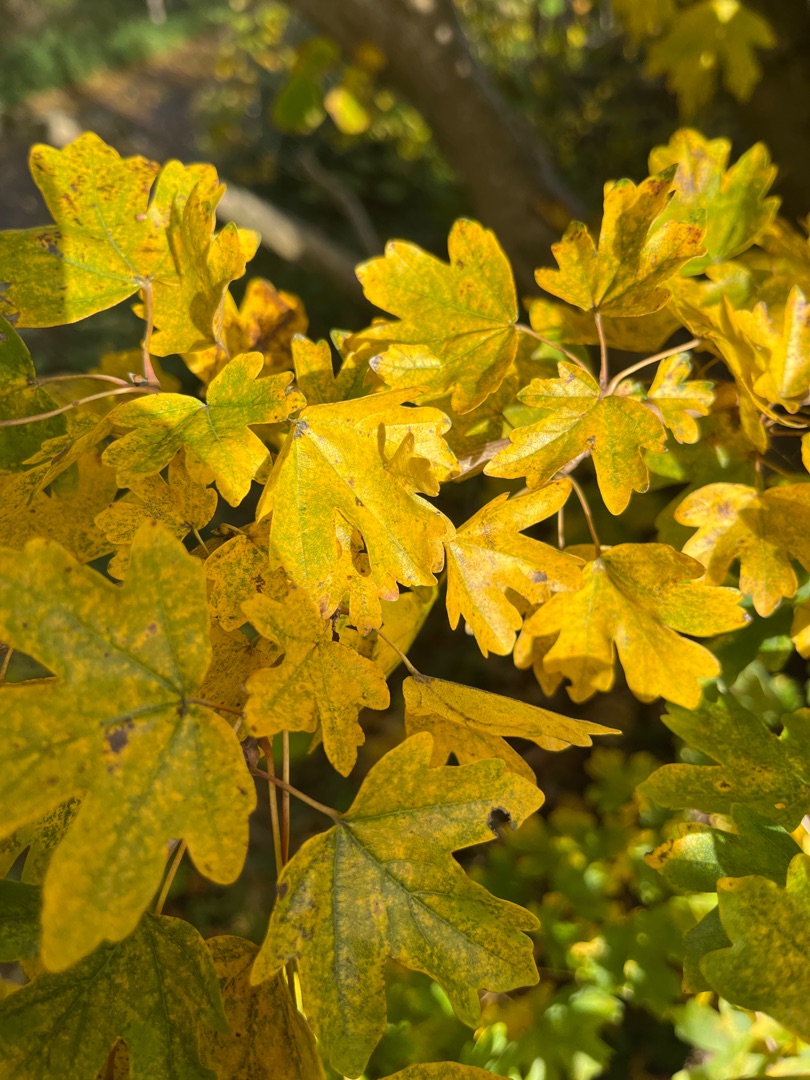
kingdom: Plantae
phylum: Tracheophyta
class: Magnoliopsida
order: Sapindales
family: Sapindaceae
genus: Acer
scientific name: Acer campestre
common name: Navr
